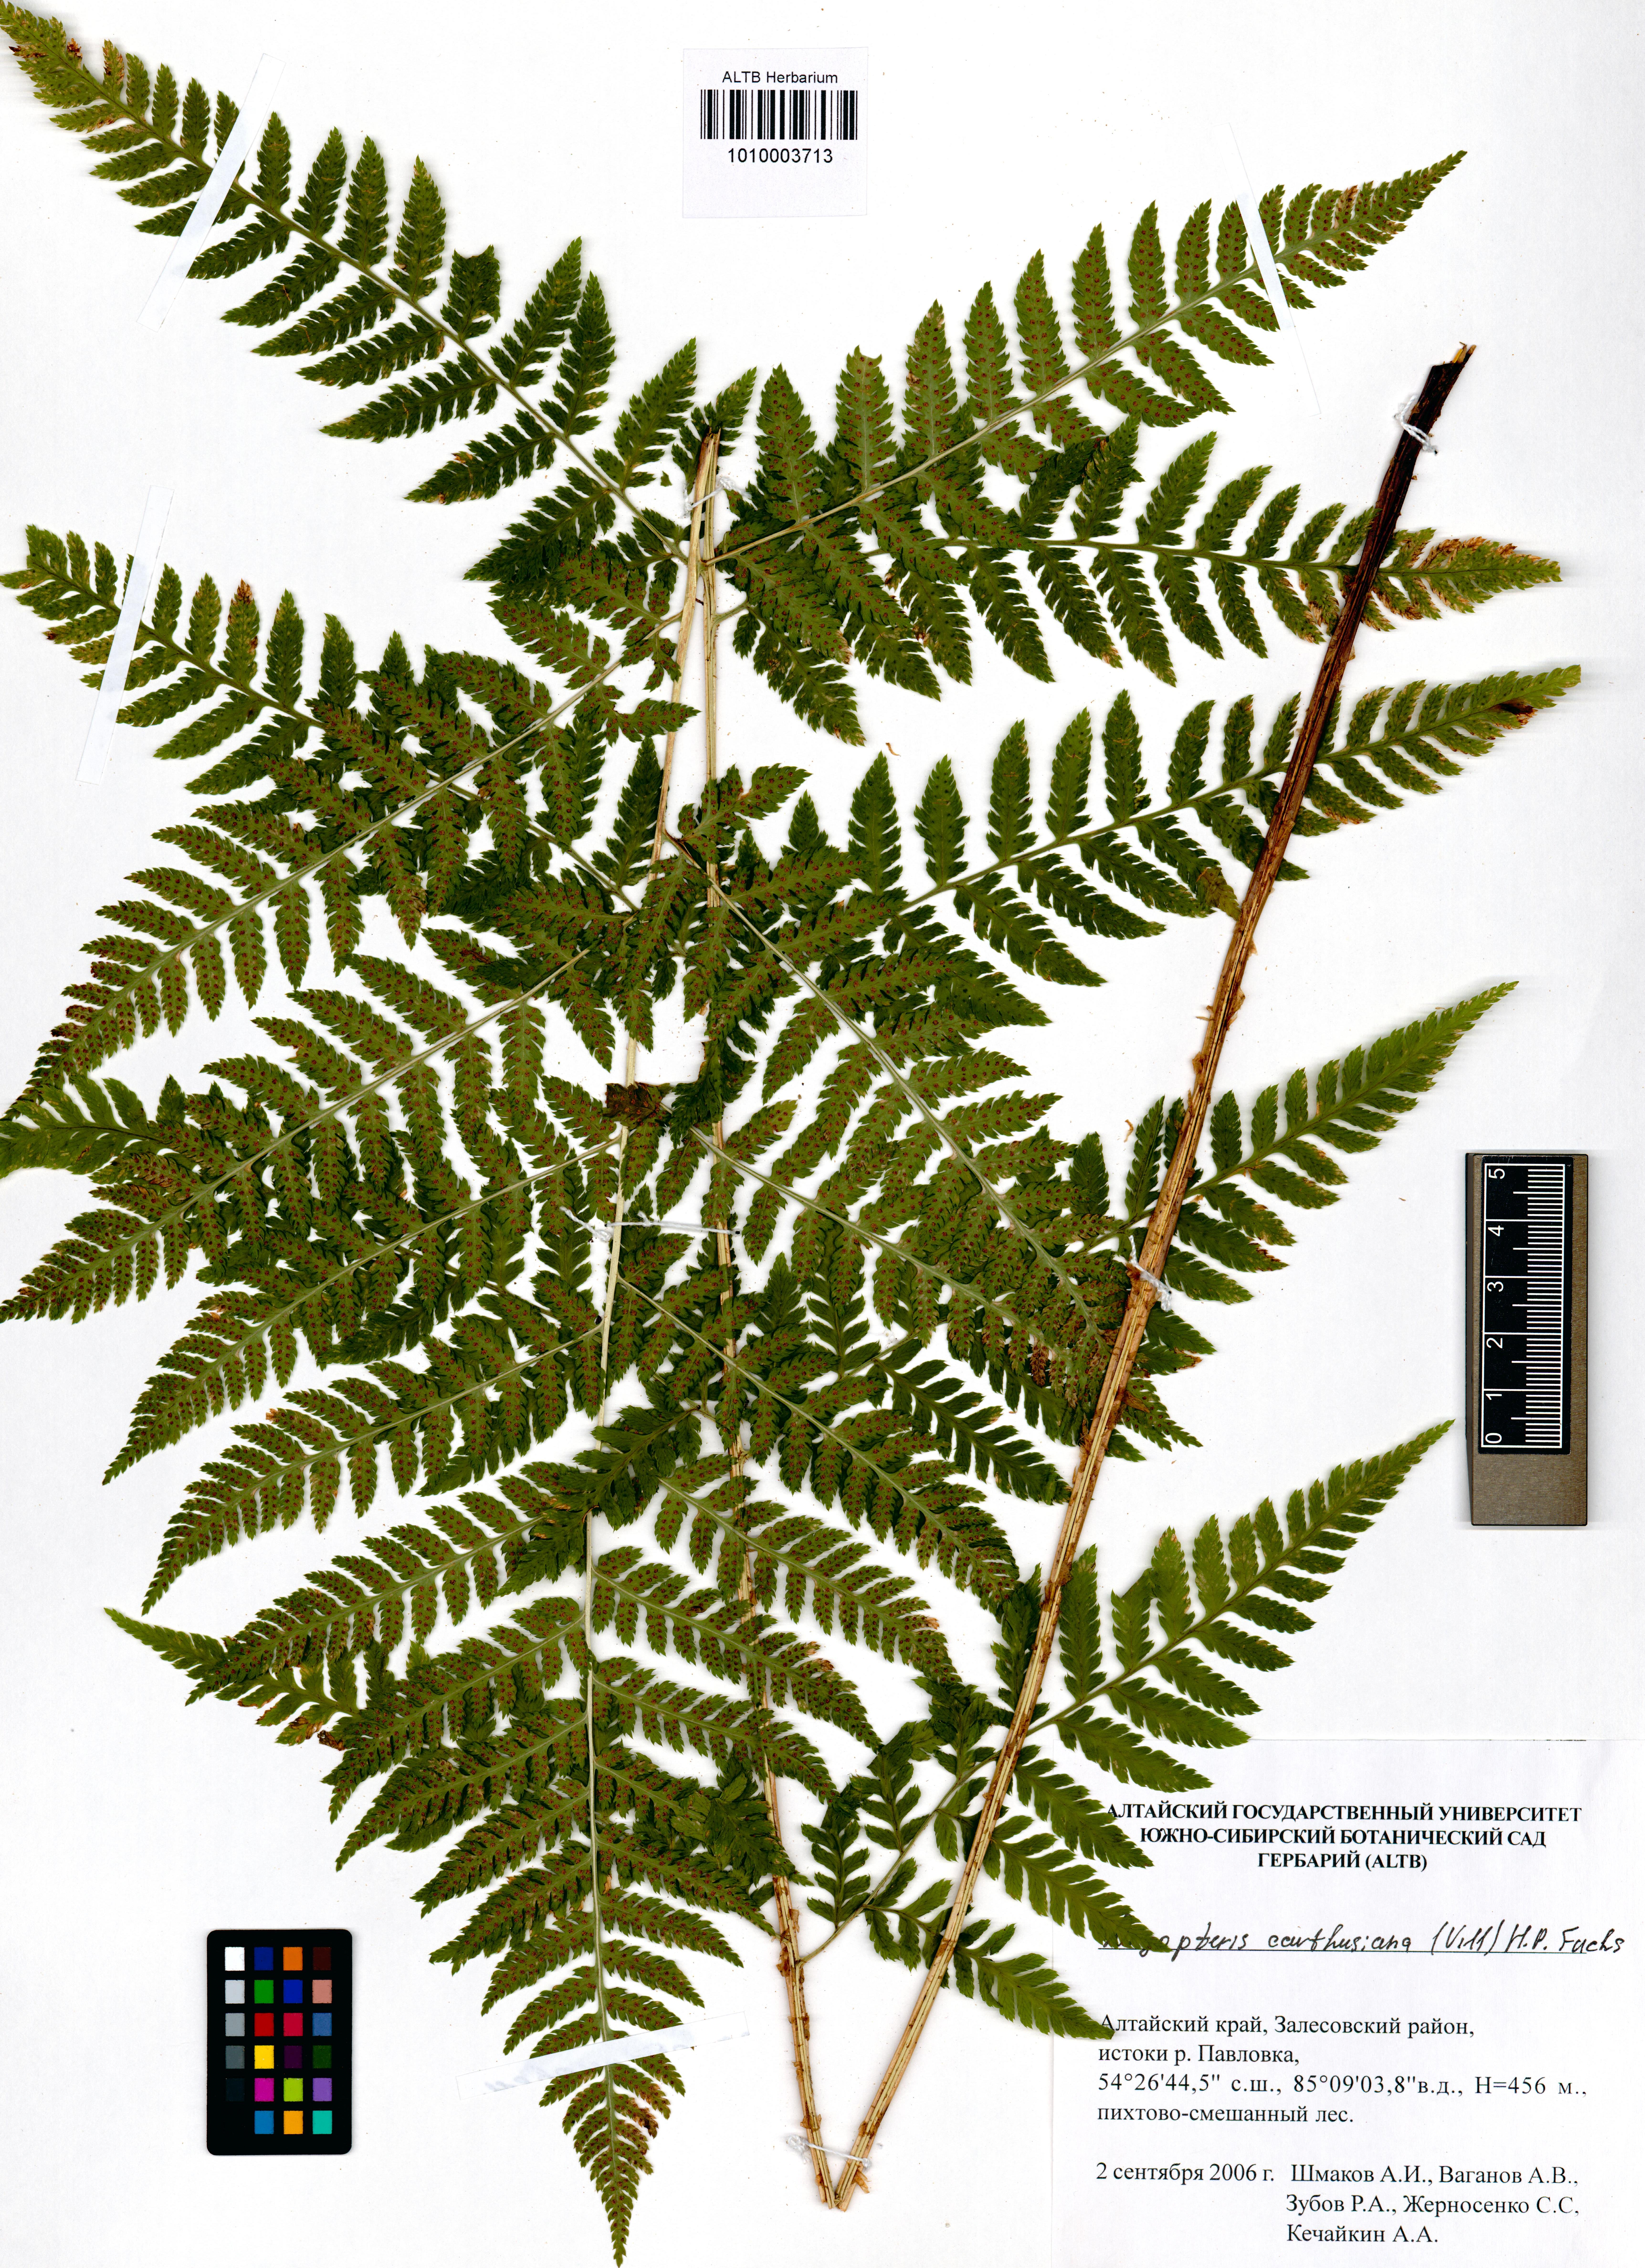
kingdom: Plantae
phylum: Tracheophyta
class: Polypodiopsida
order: Polypodiales
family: Dryopteridaceae
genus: Dryopteris
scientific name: Dryopteris carthusiana
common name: Narrow buckler-fern
